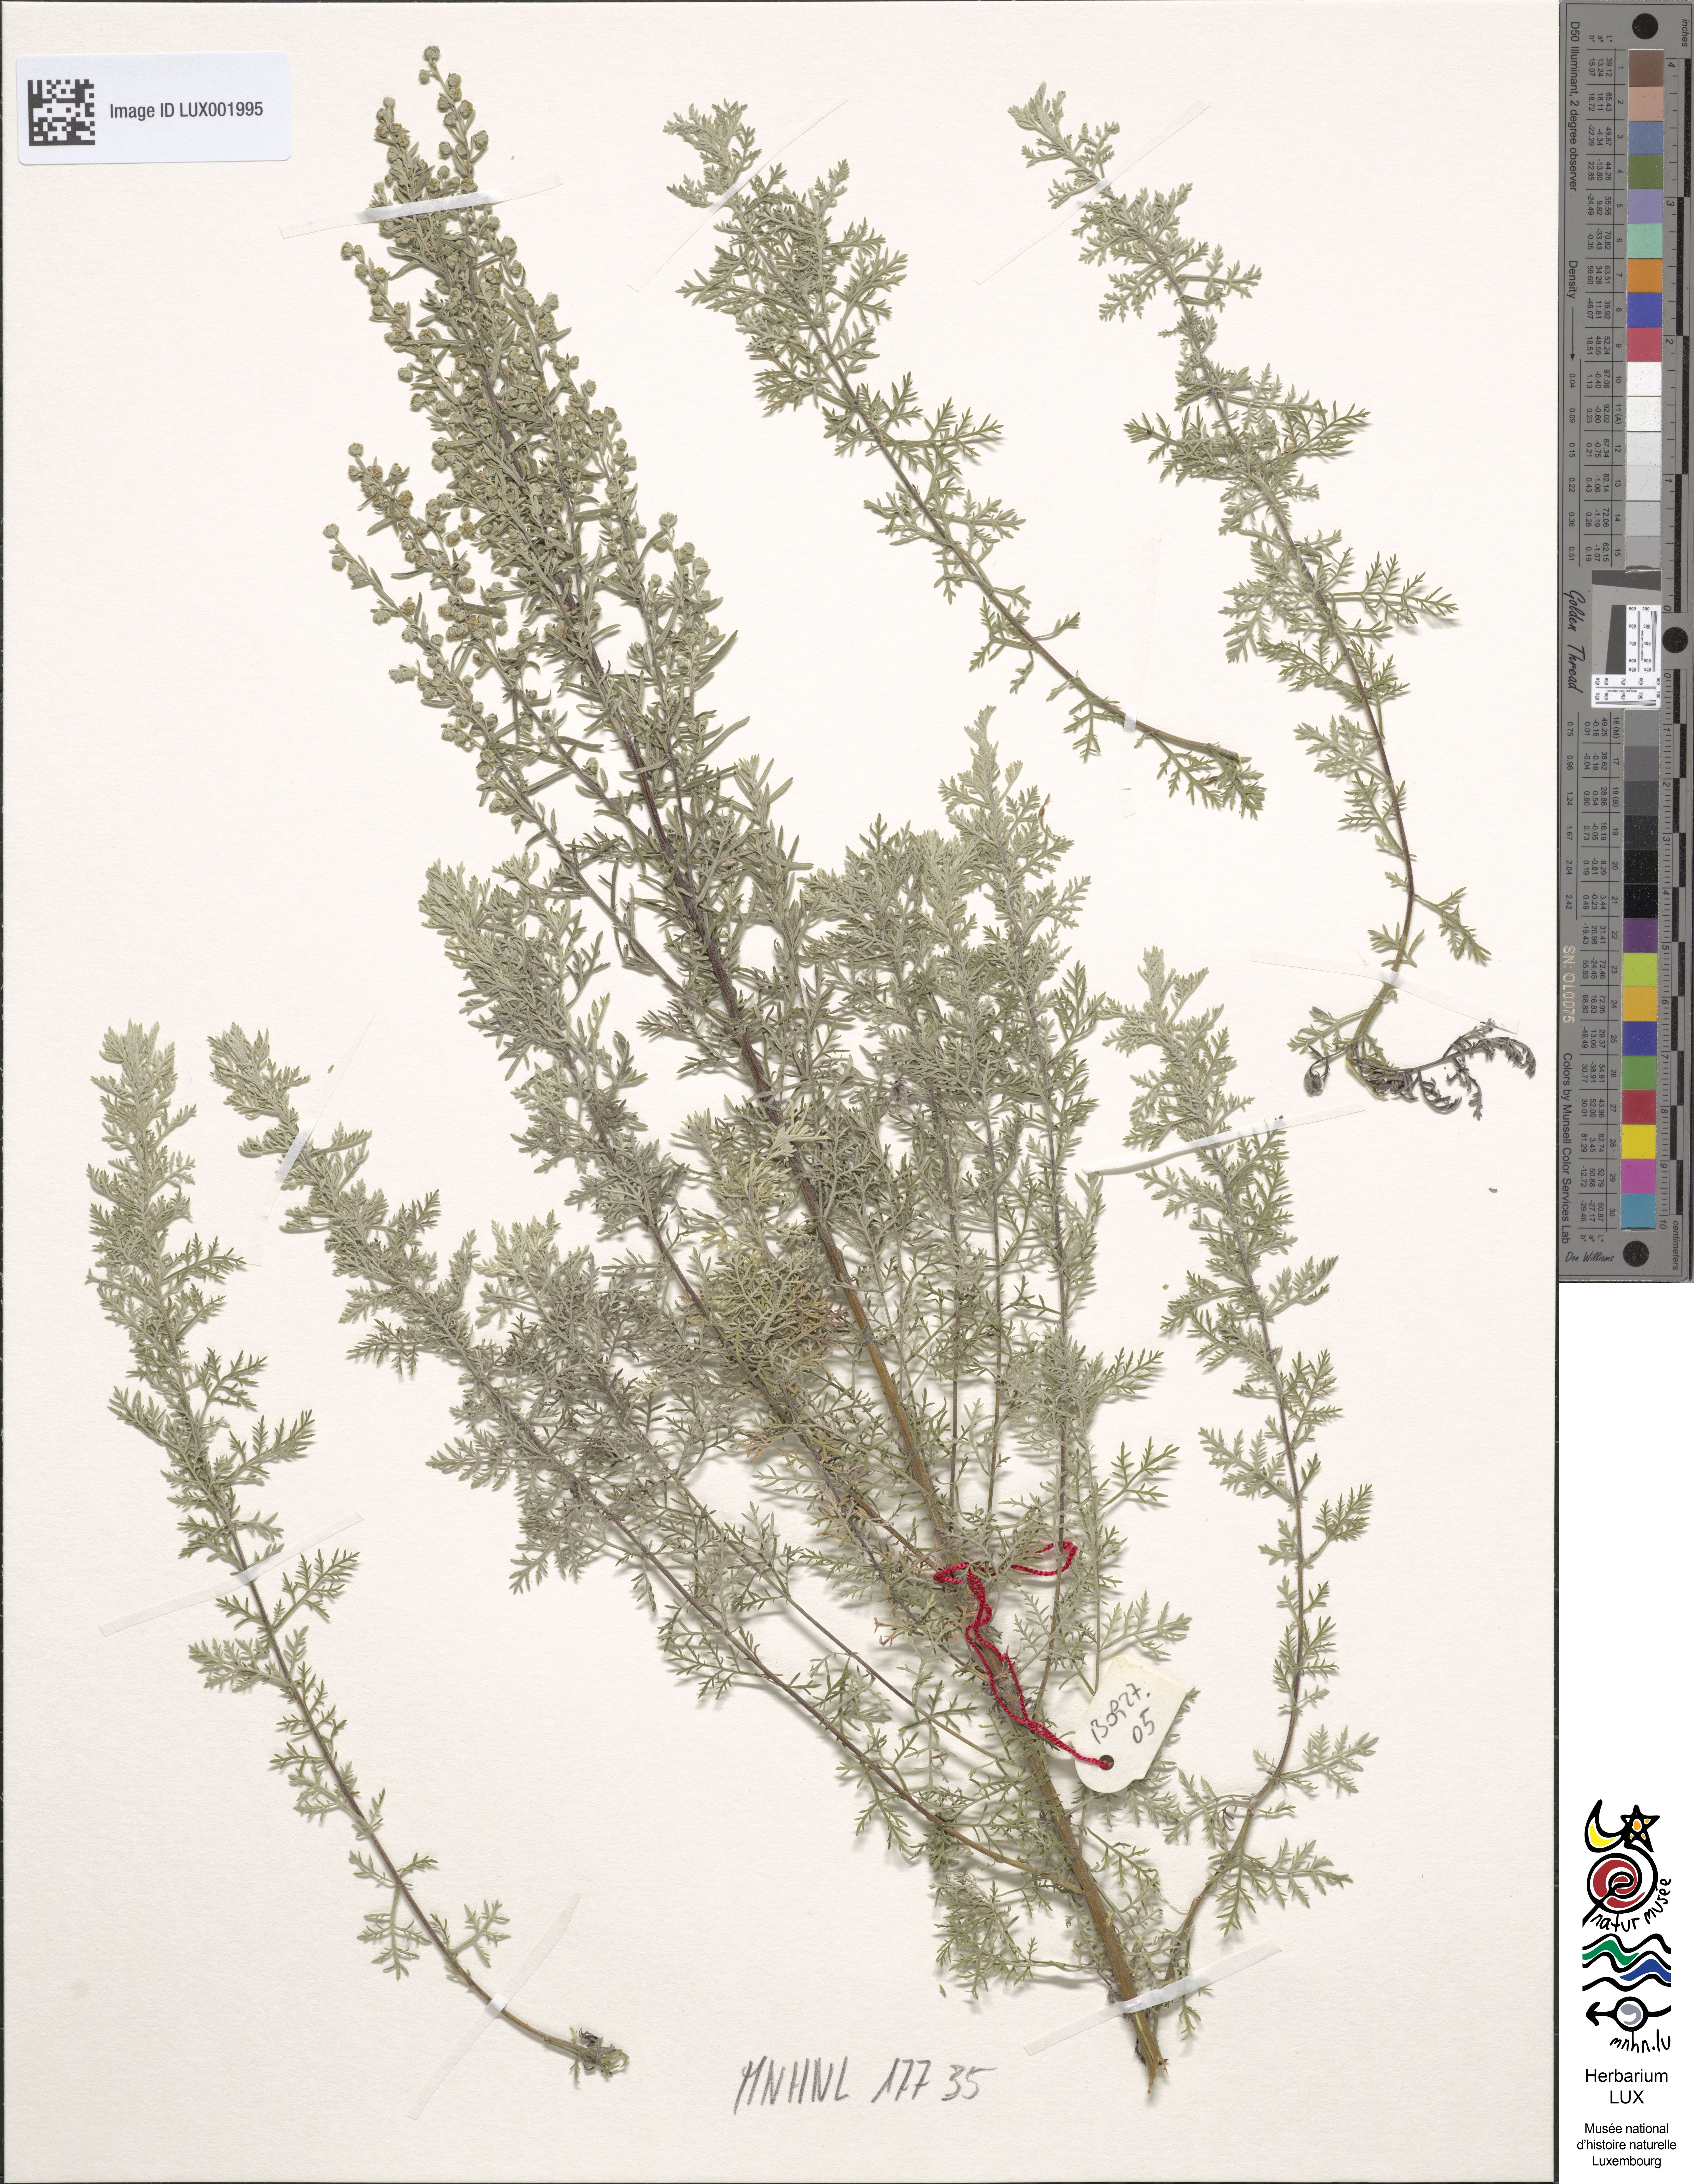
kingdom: Plantae
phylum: Tracheophyta
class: Magnoliopsida
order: Asterales
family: Asteraceae
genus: Artemisia
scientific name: Artemisia pontica
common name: Roman wormwood
